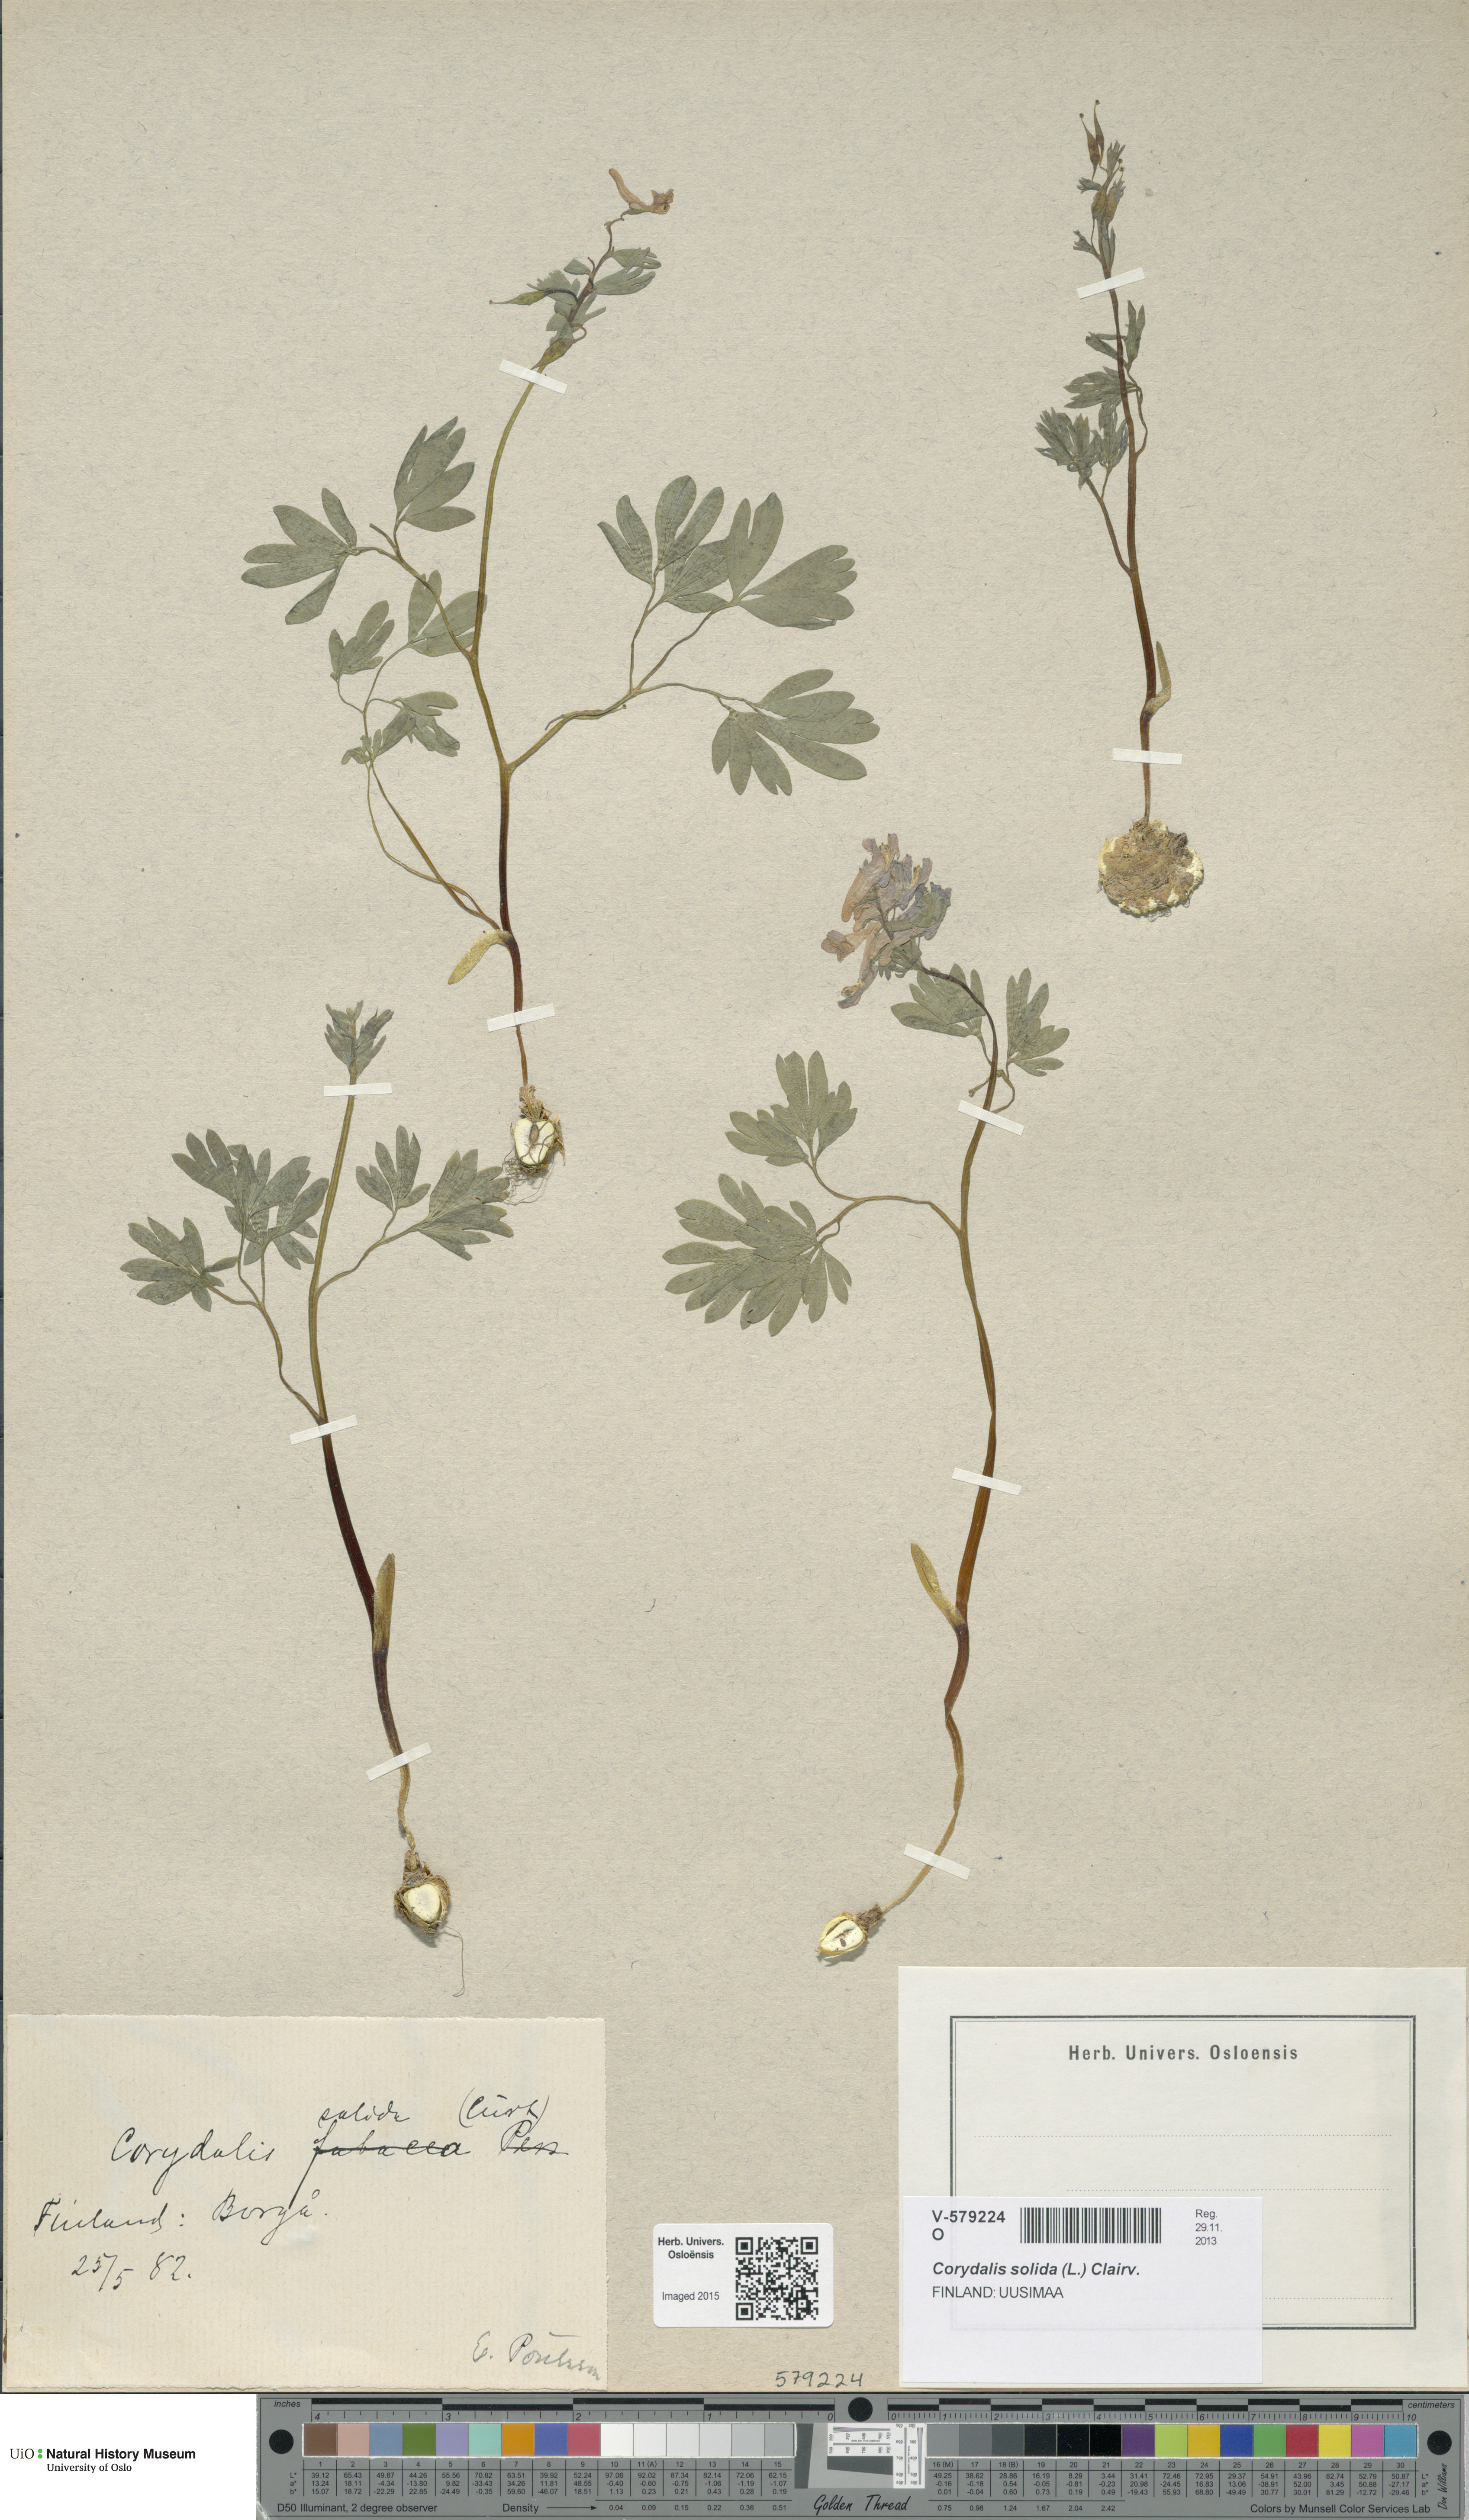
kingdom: Plantae
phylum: Tracheophyta
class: Magnoliopsida
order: Ranunculales
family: Papaveraceae
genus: Corydalis
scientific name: Corydalis solida
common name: Bird-in-a-bush
